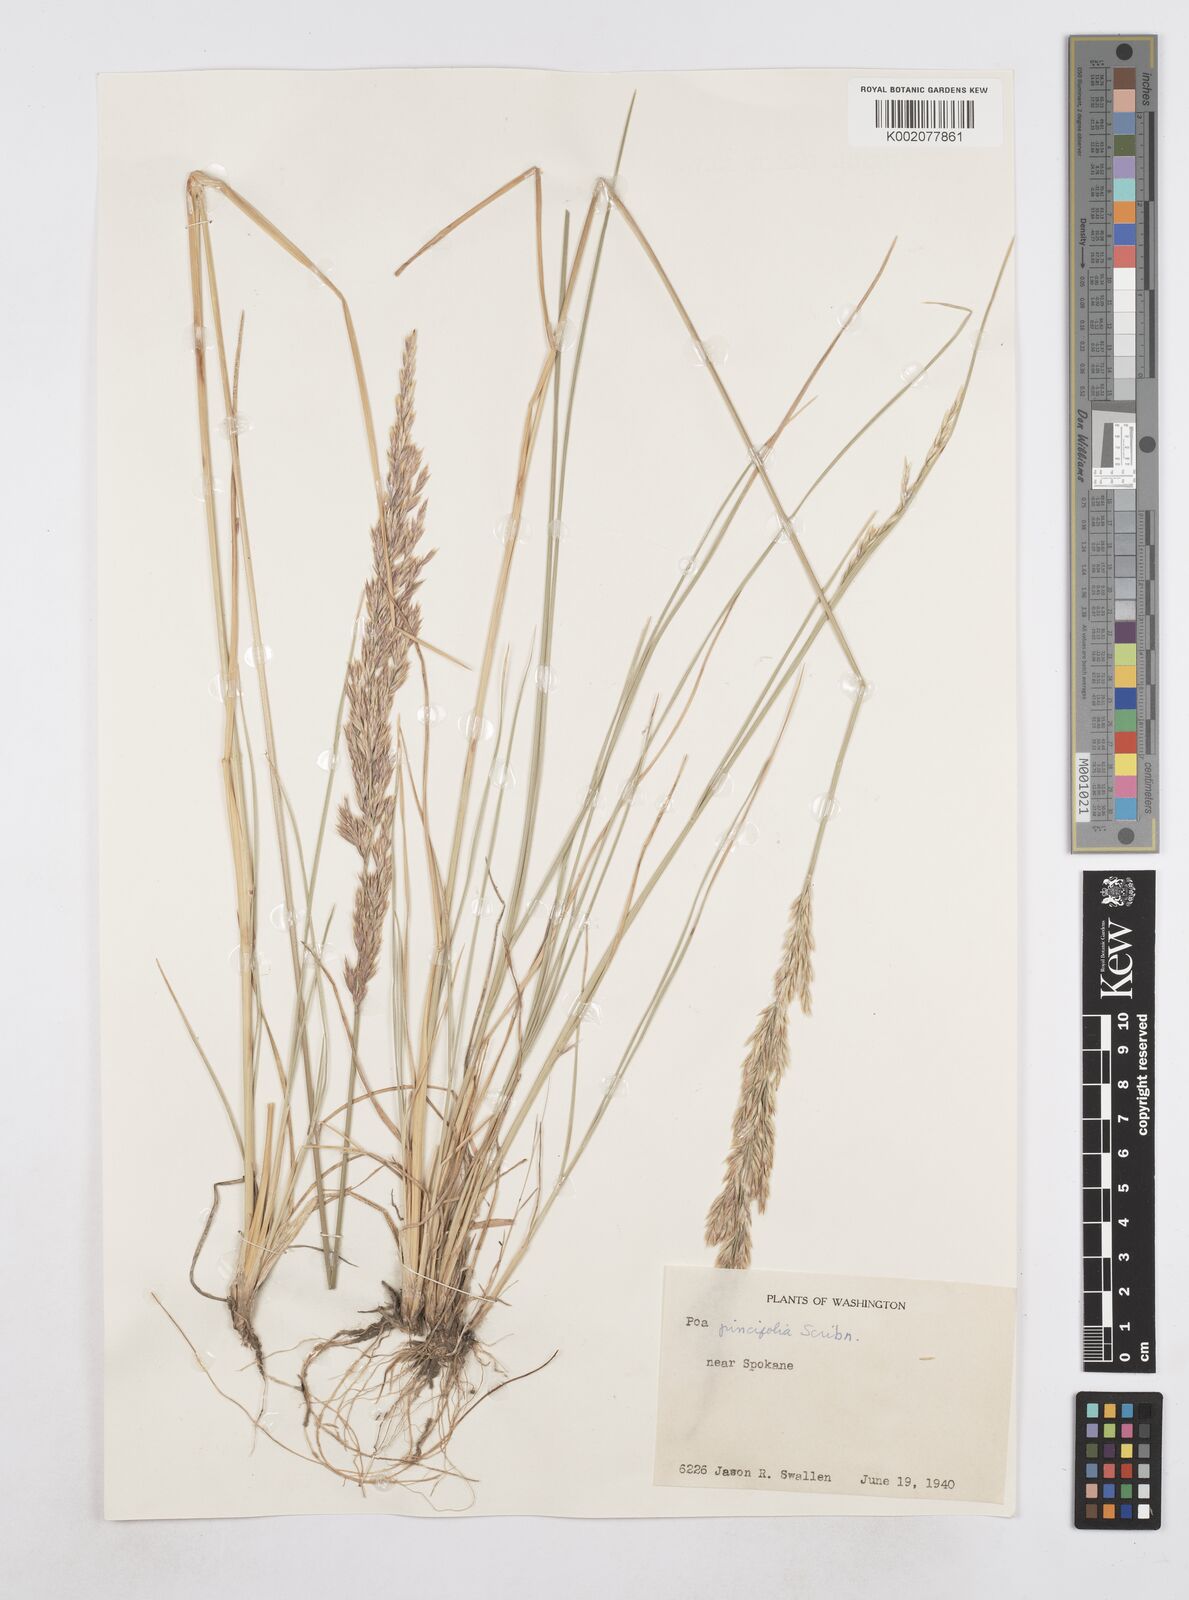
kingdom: Plantae
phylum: Tracheophyta
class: Liliopsida
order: Poales
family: Poaceae
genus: Poa
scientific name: Poa secunda
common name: Sandberg bluegrass
